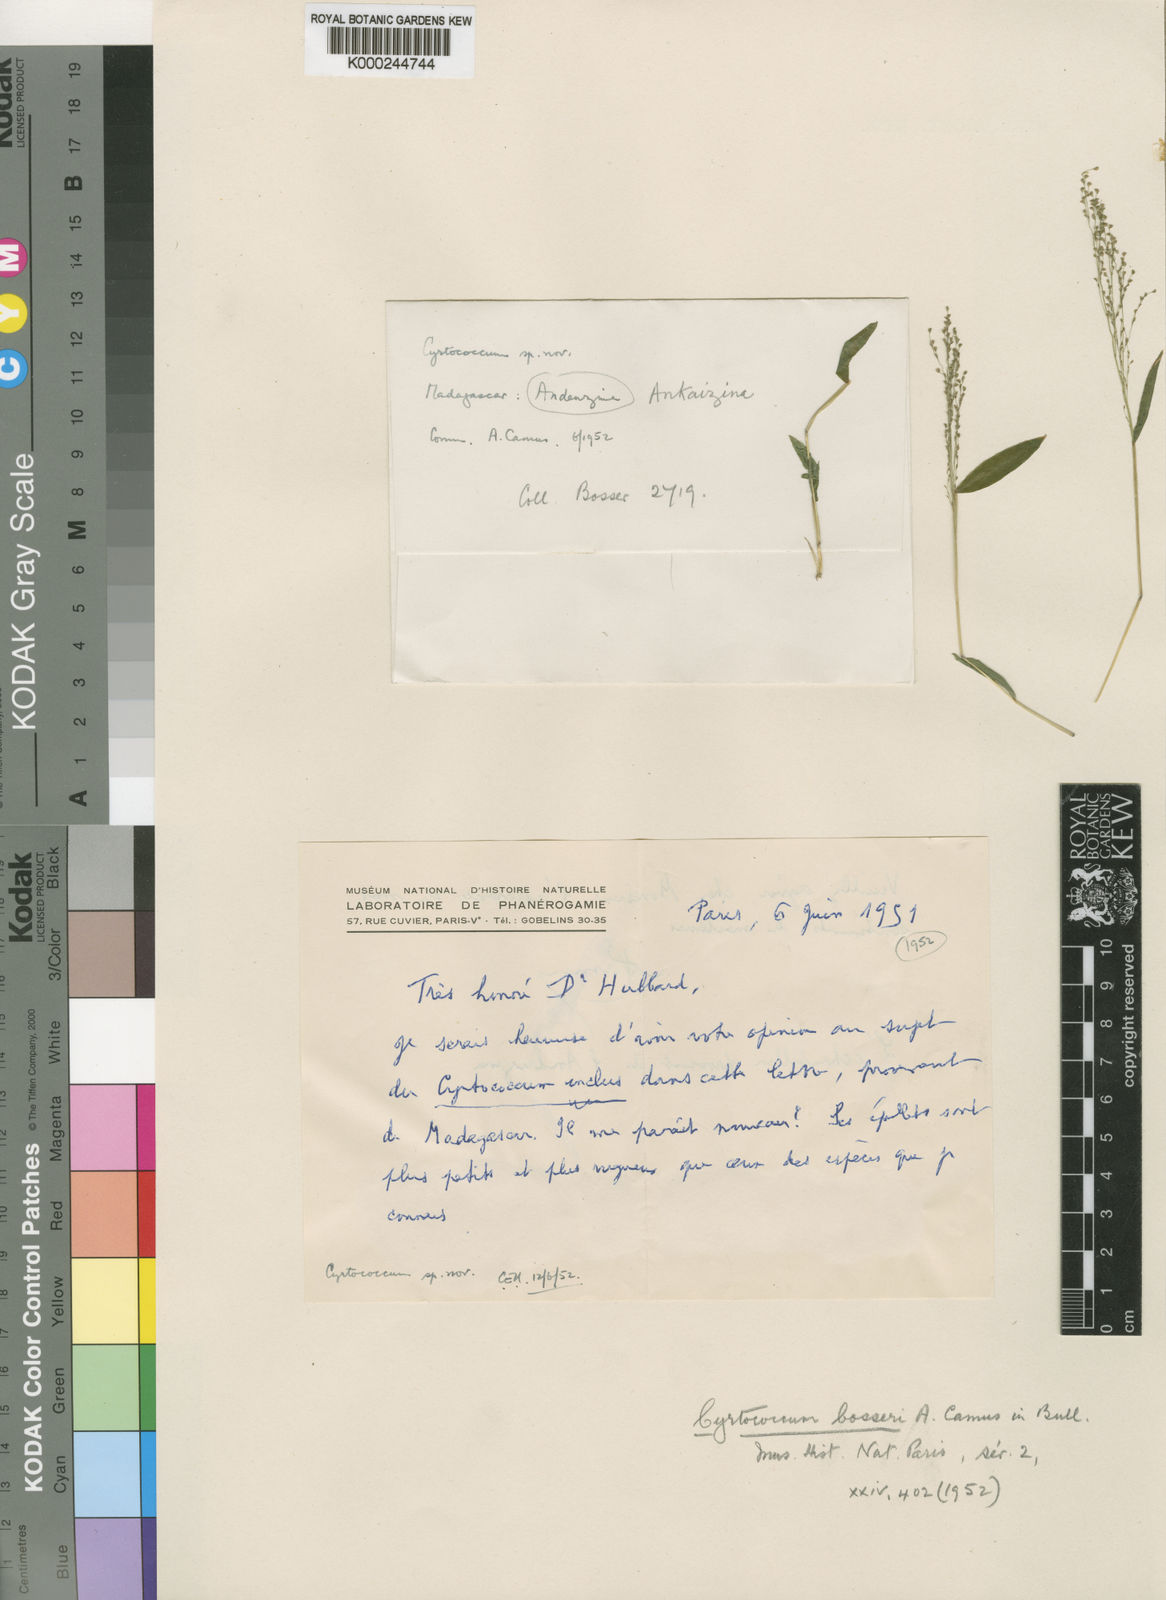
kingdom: Plantae
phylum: Tracheophyta
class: Liliopsida
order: Poales
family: Poaceae
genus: Cyrtococcum
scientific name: Cyrtococcum bosseri
